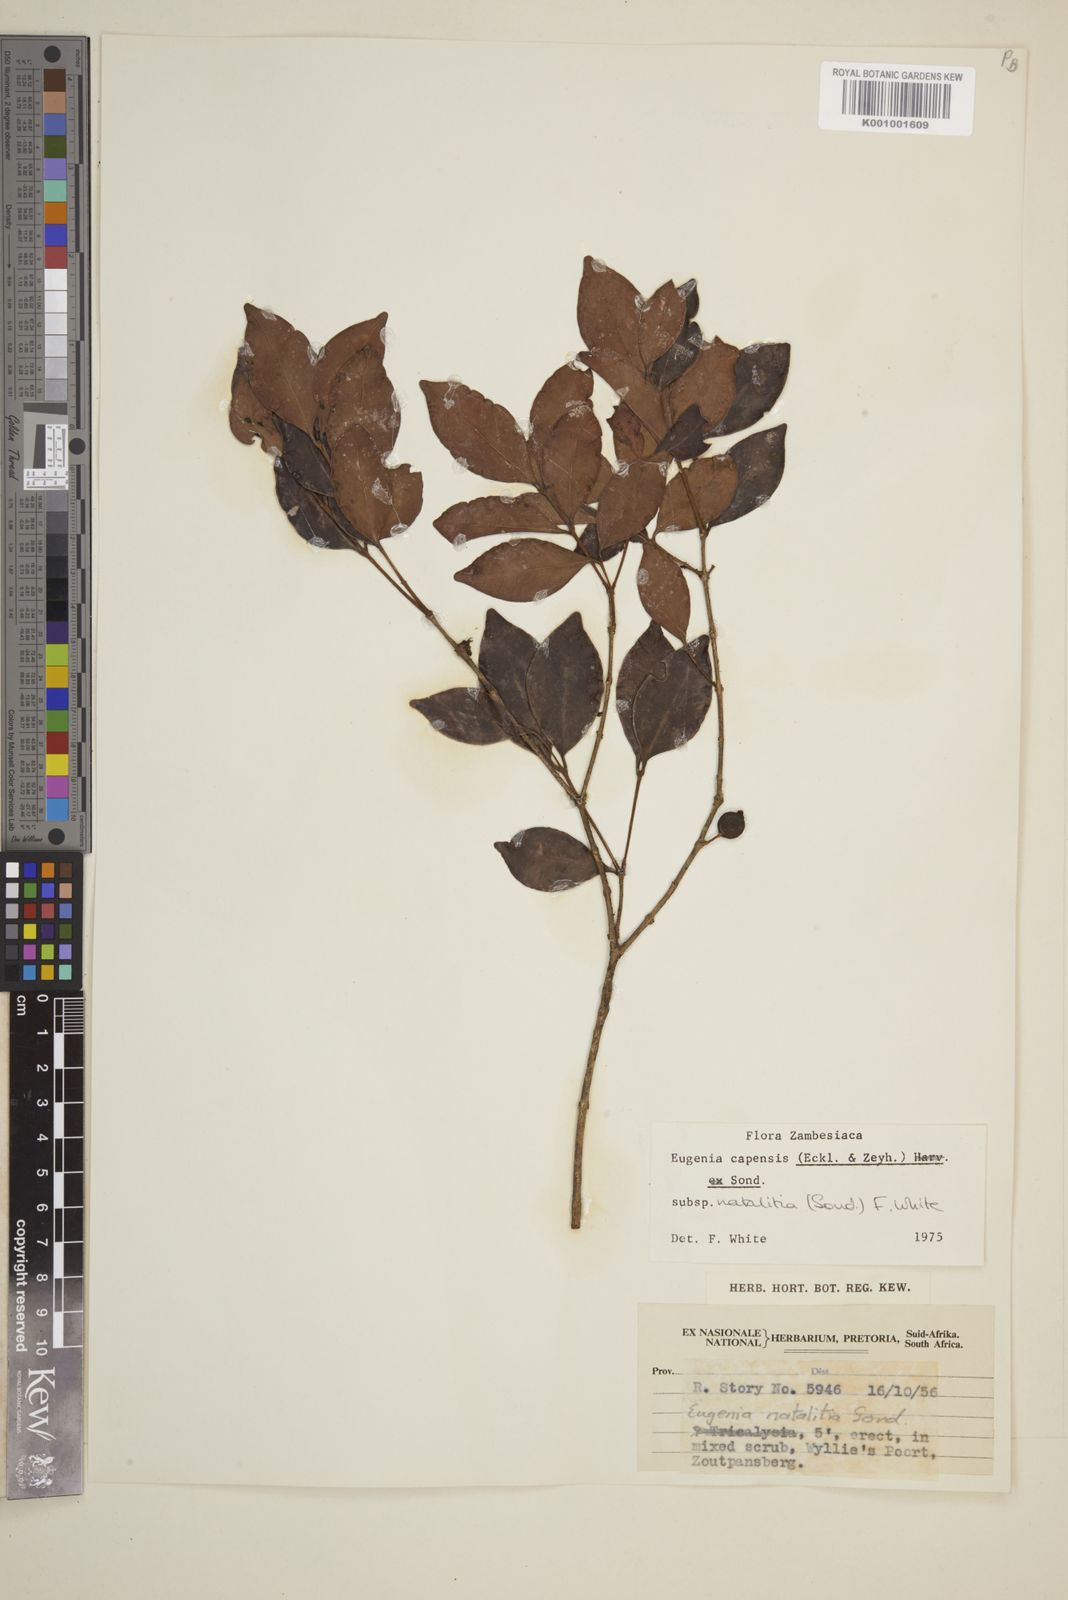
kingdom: Plantae
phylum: Tracheophyta
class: Magnoliopsida
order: Myrtales
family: Myrtaceae
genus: Eugenia
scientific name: Eugenia natalitia
